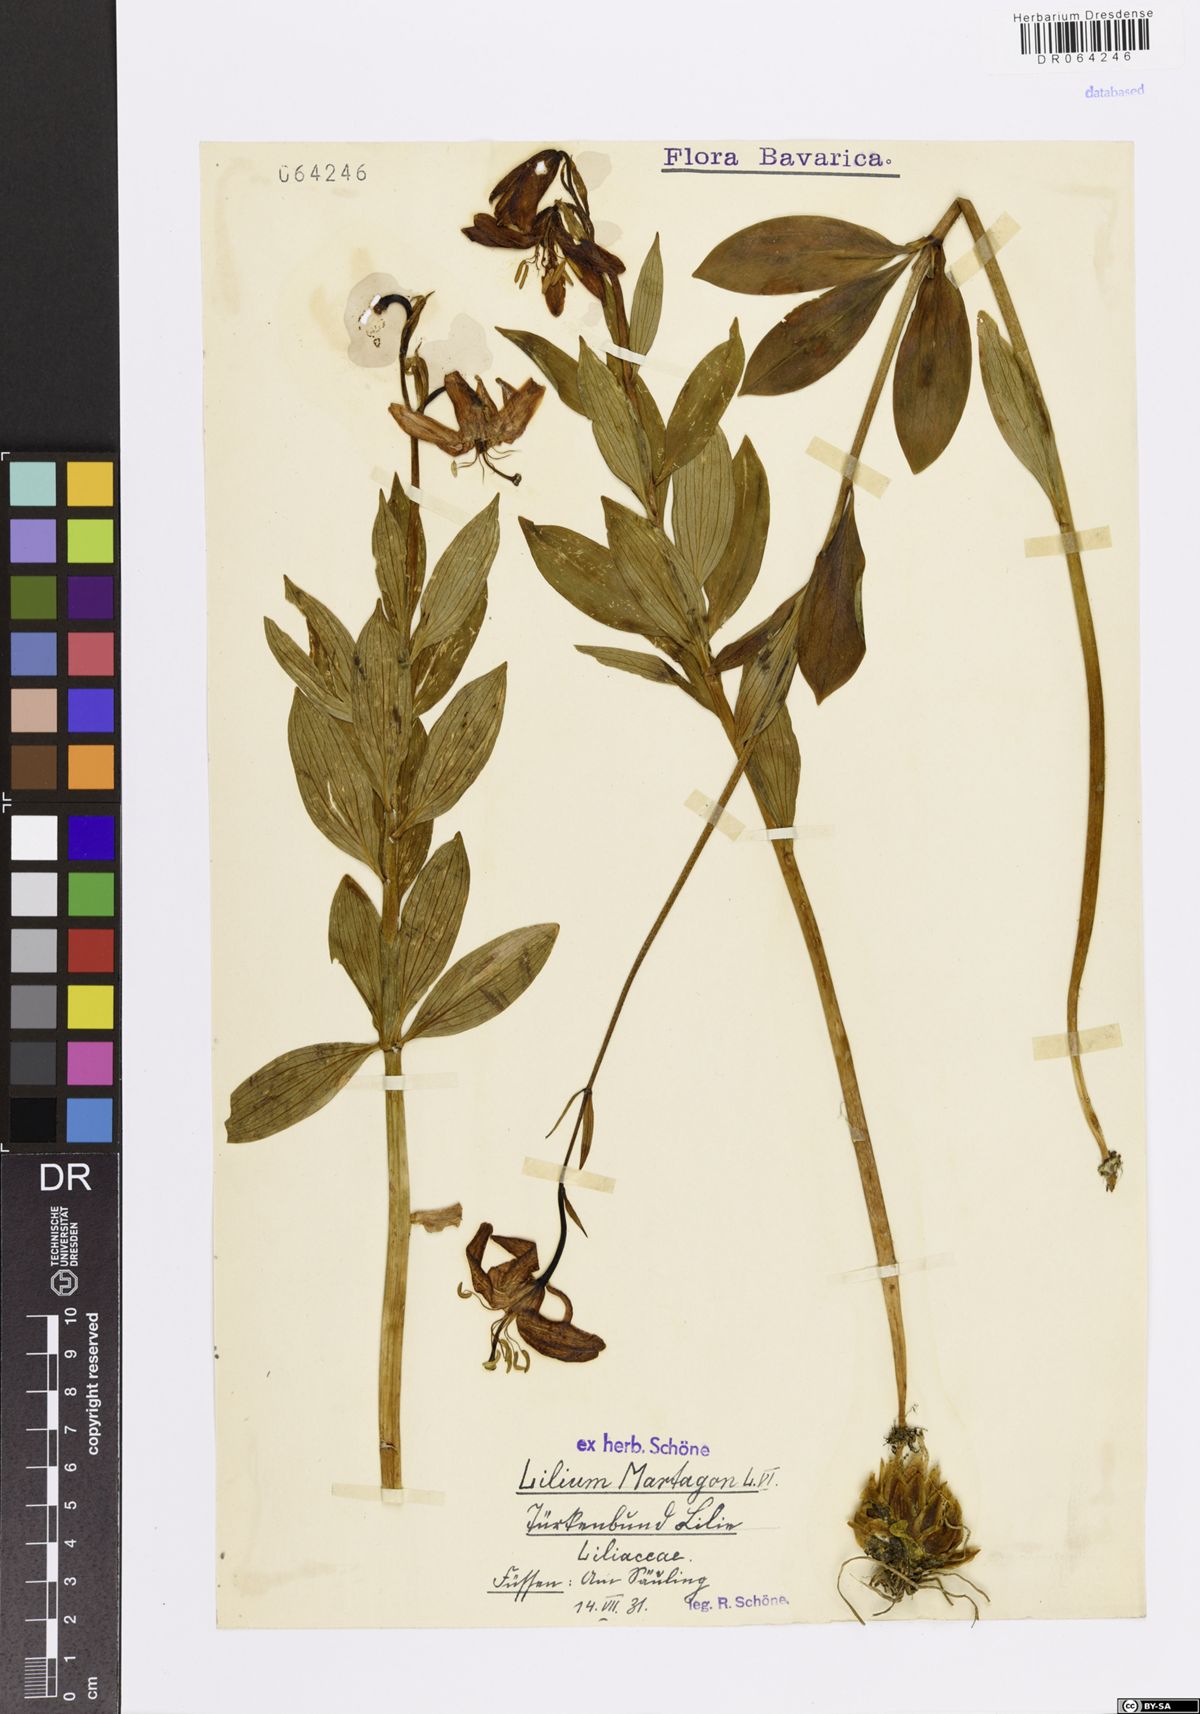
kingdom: Plantae
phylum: Tracheophyta
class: Liliopsida
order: Liliales
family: Liliaceae
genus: Lilium
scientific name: Lilium martagon
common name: Martagon lily
